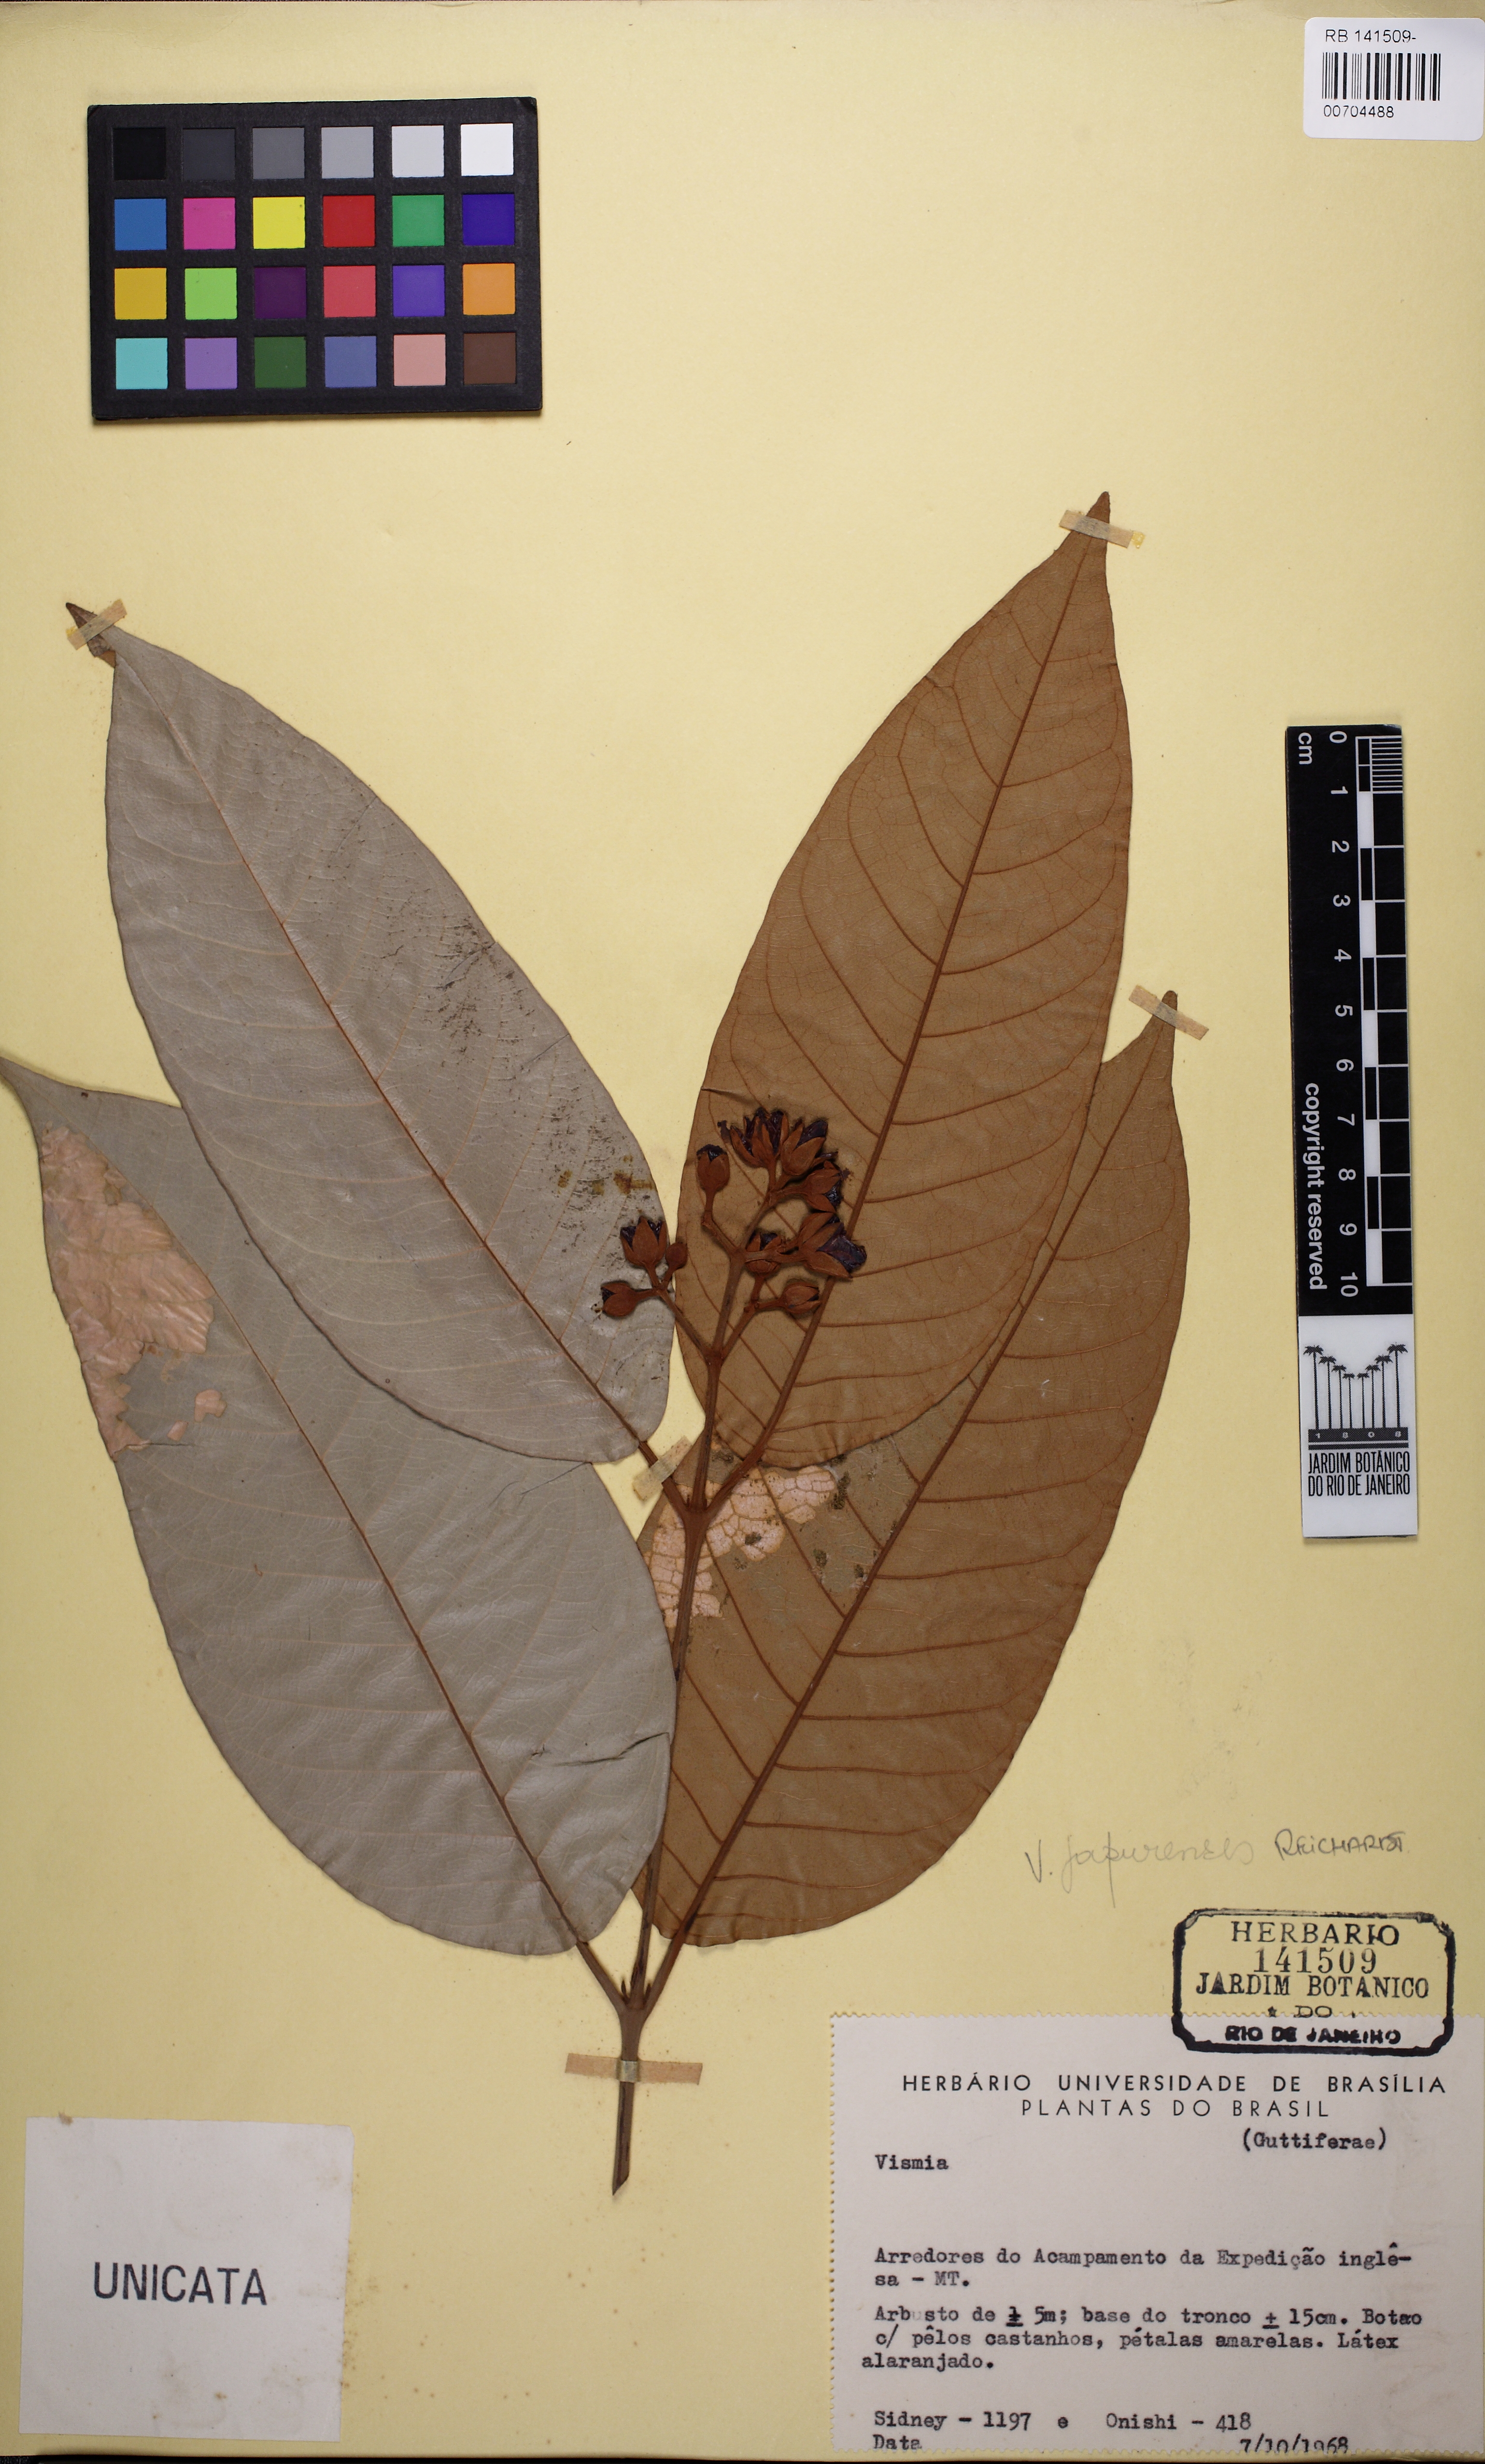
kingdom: Plantae
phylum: Tracheophyta
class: Magnoliopsida
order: Malpighiales
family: Hypericaceae
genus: Vismia
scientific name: Vismia japurensis
